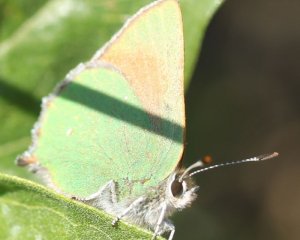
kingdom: Animalia
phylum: Arthropoda
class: Insecta
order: Lepidoptera
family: Lycaenidae
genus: Callophrys
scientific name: Callophrys affinis
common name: Western Green Hairstreak
